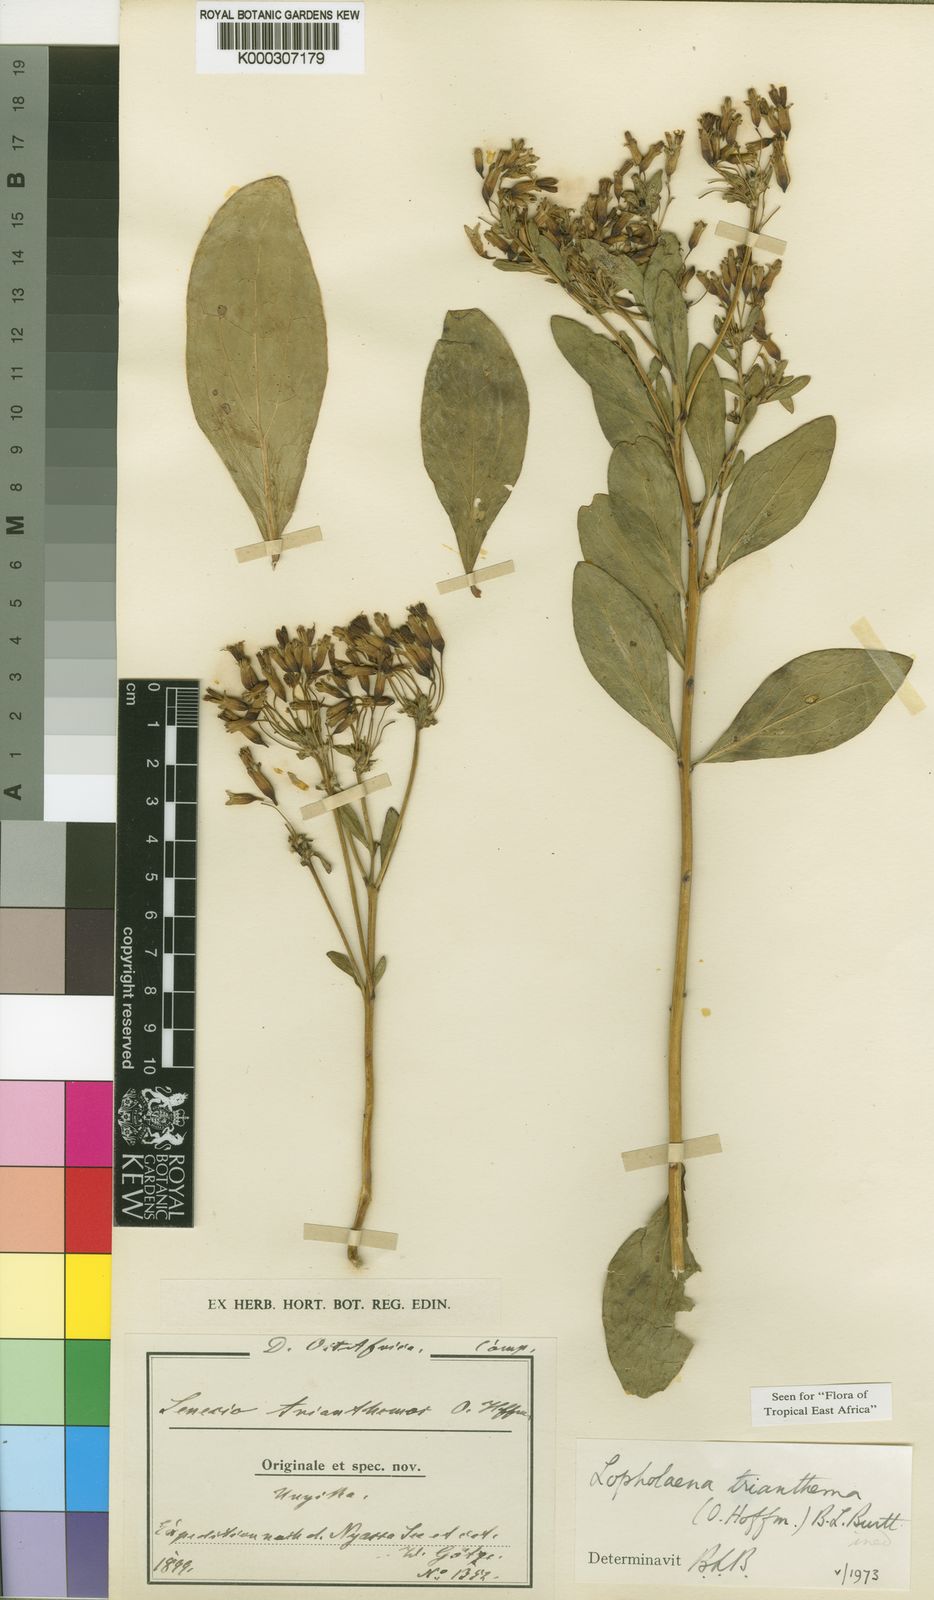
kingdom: Plantae
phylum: Tracheophyta
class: Magnoliopsida
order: Asterales
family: Asteraceae
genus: Lopholaena
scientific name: Lopholaena trianthema
